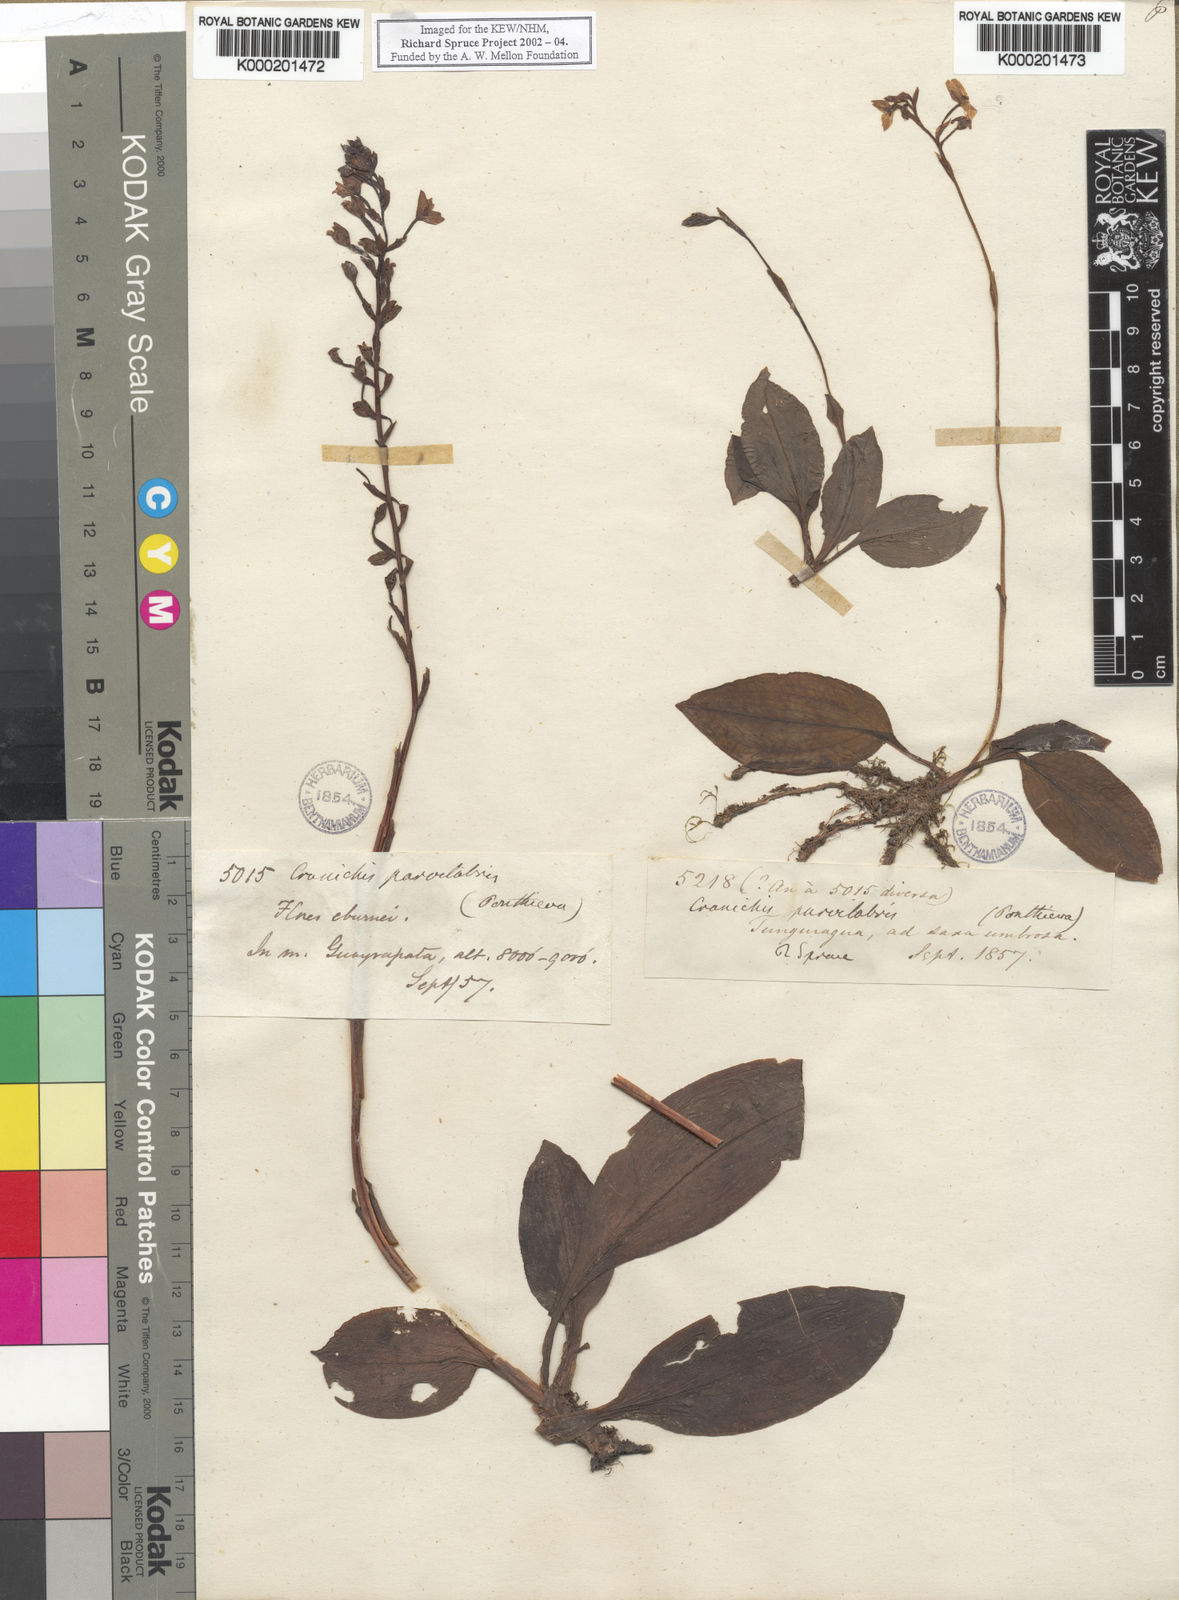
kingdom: Plantae
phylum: Tracheophyta
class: Liliopsida
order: Asparagales
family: Orchidaceae
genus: Ponthieva
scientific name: Ponthieva parvilabris
